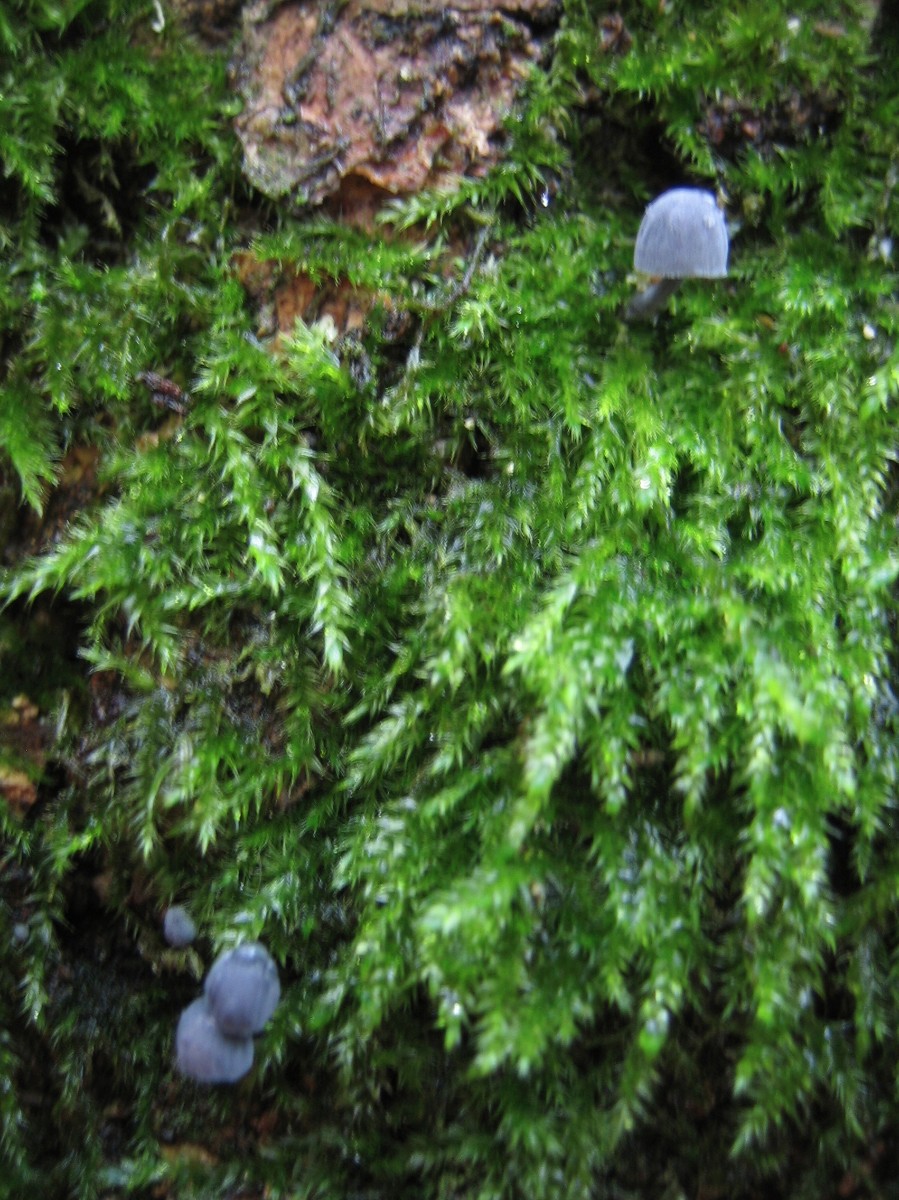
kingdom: Fungi
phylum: Basidiomycota
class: Agaricomycetes
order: Agaricales
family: Mycenaceae
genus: Mycena
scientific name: Mycena pseudocorticola
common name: gråblå bark-huesvamp
